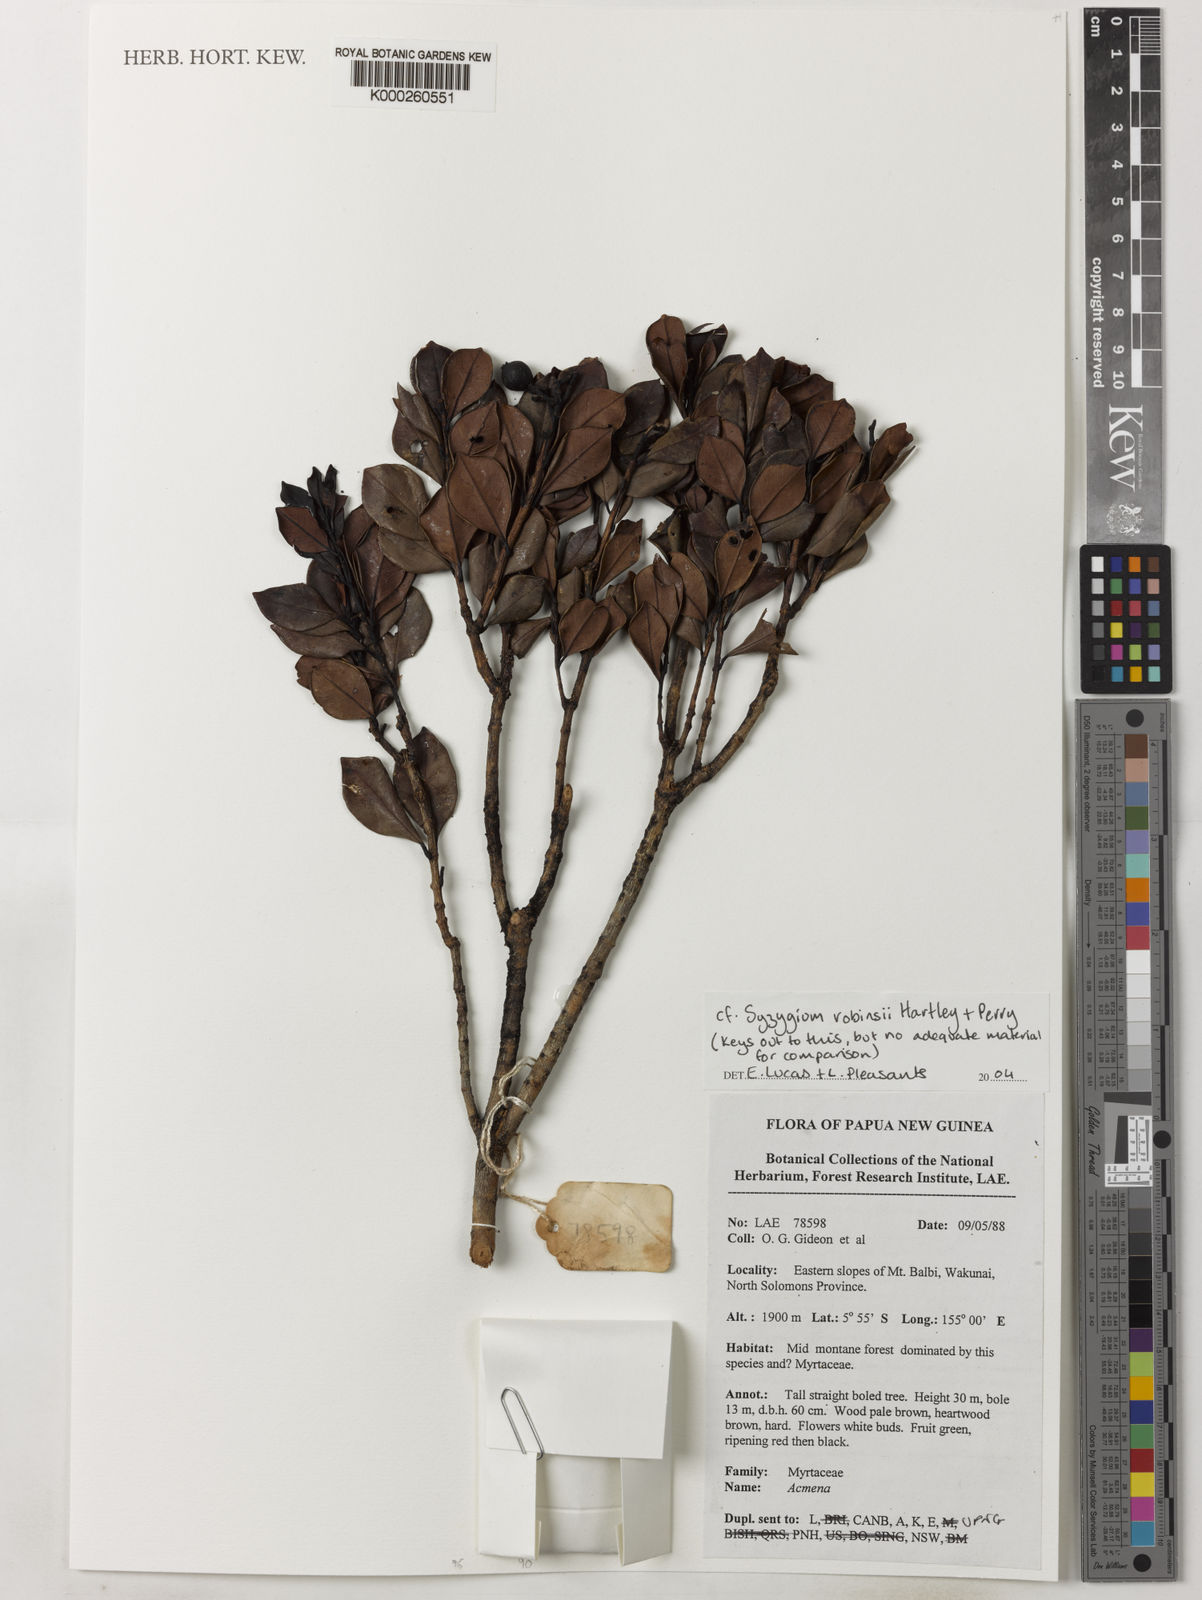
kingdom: Plantae
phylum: Tracheophyta
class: Magnoliopsida
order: Myrtales
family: Myrtaceae
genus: Syzygium
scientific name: Syzygium robbinsii
